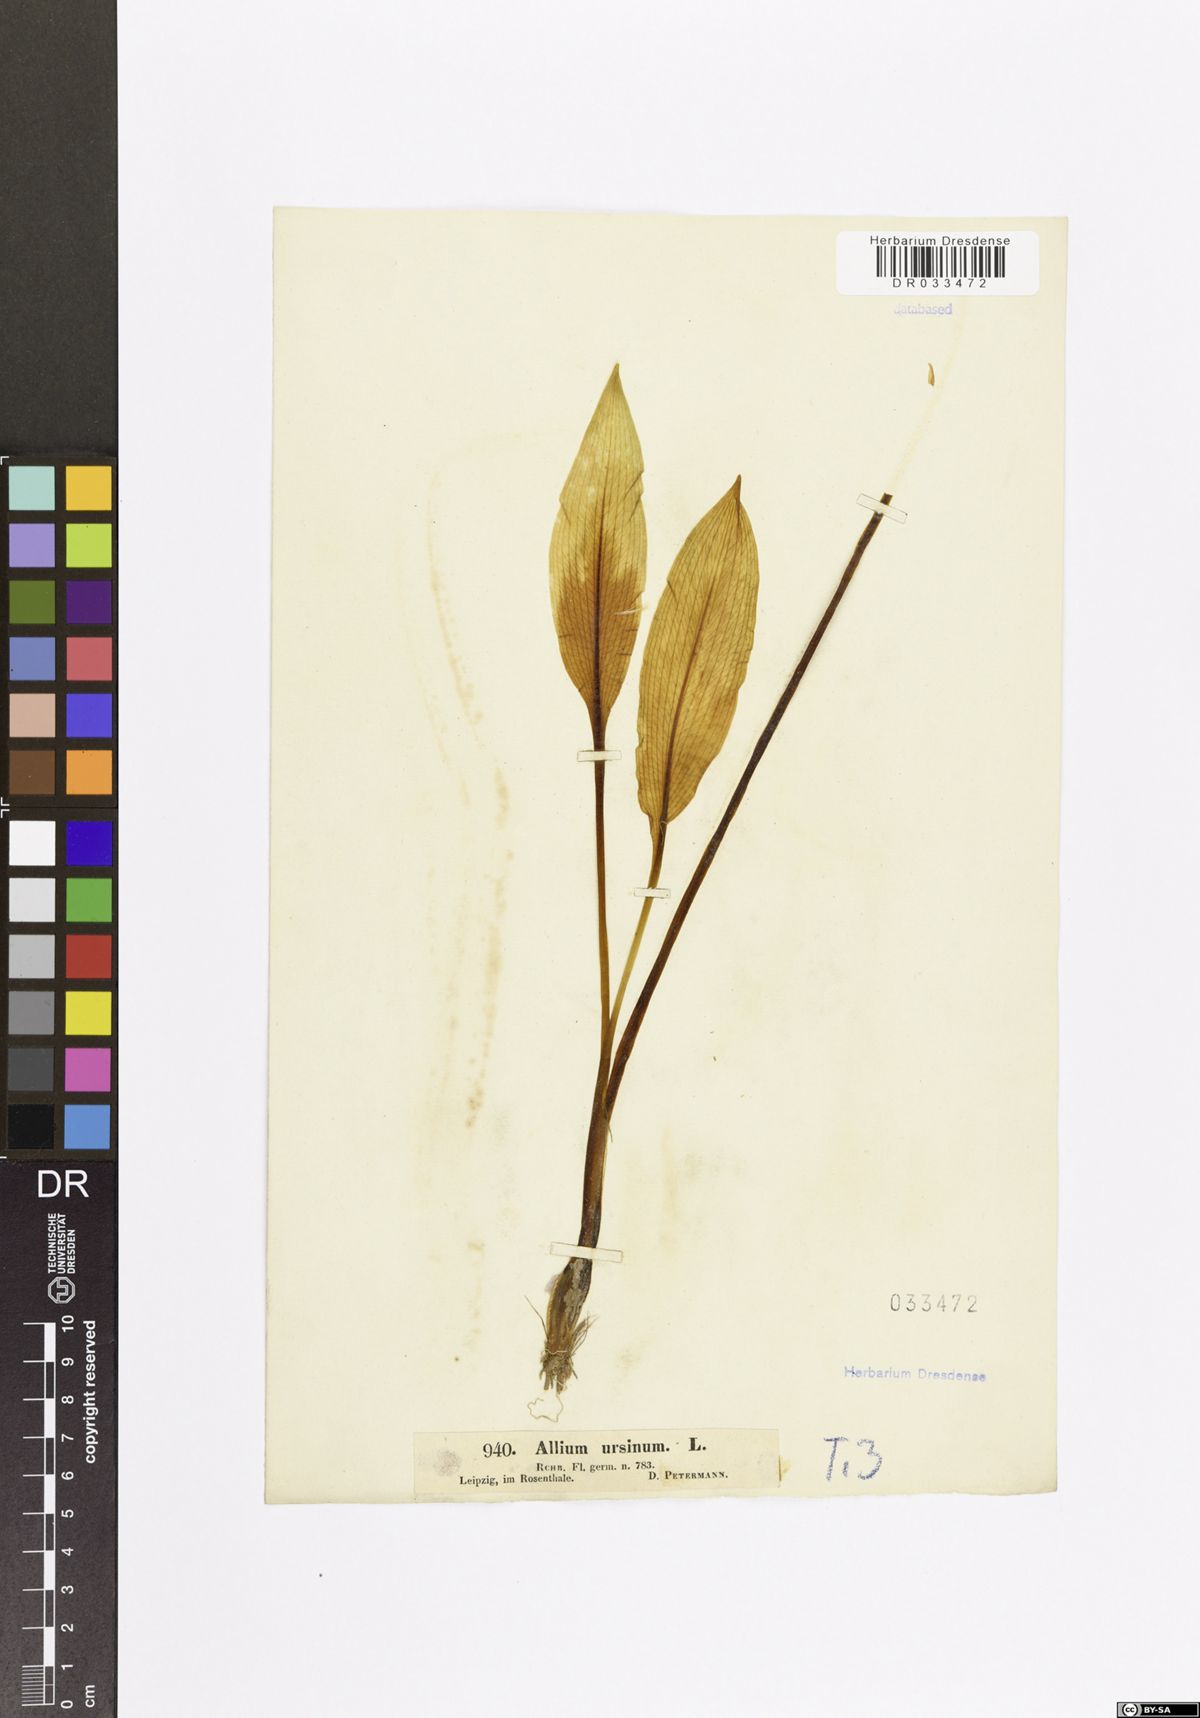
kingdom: Plantae
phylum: Tracheophyta
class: Liliopsida
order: Asparagales
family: Amaryllidaceae
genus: Allium
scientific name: Allium ursinum
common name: Ramsons
